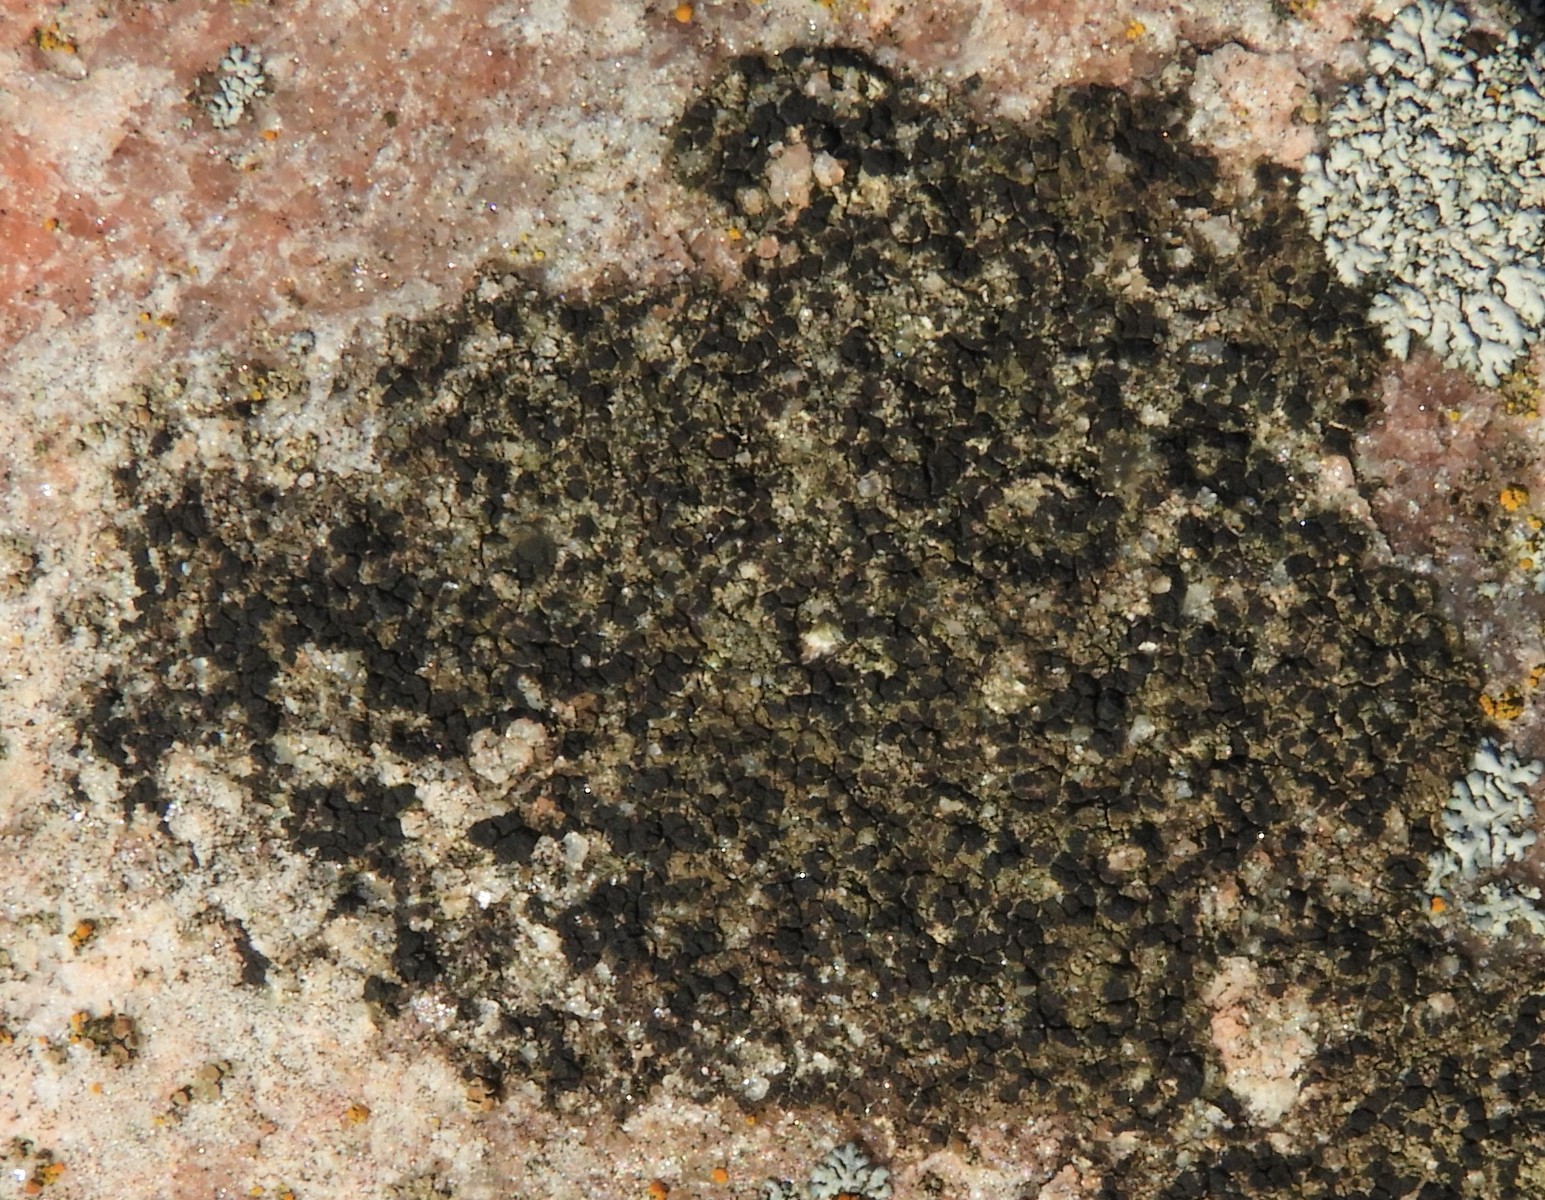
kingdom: Fungi
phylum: Ascomycota
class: Lecanoromycetes
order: Lecanorales
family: Parmeliaceae
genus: Lichen
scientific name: Lichen
